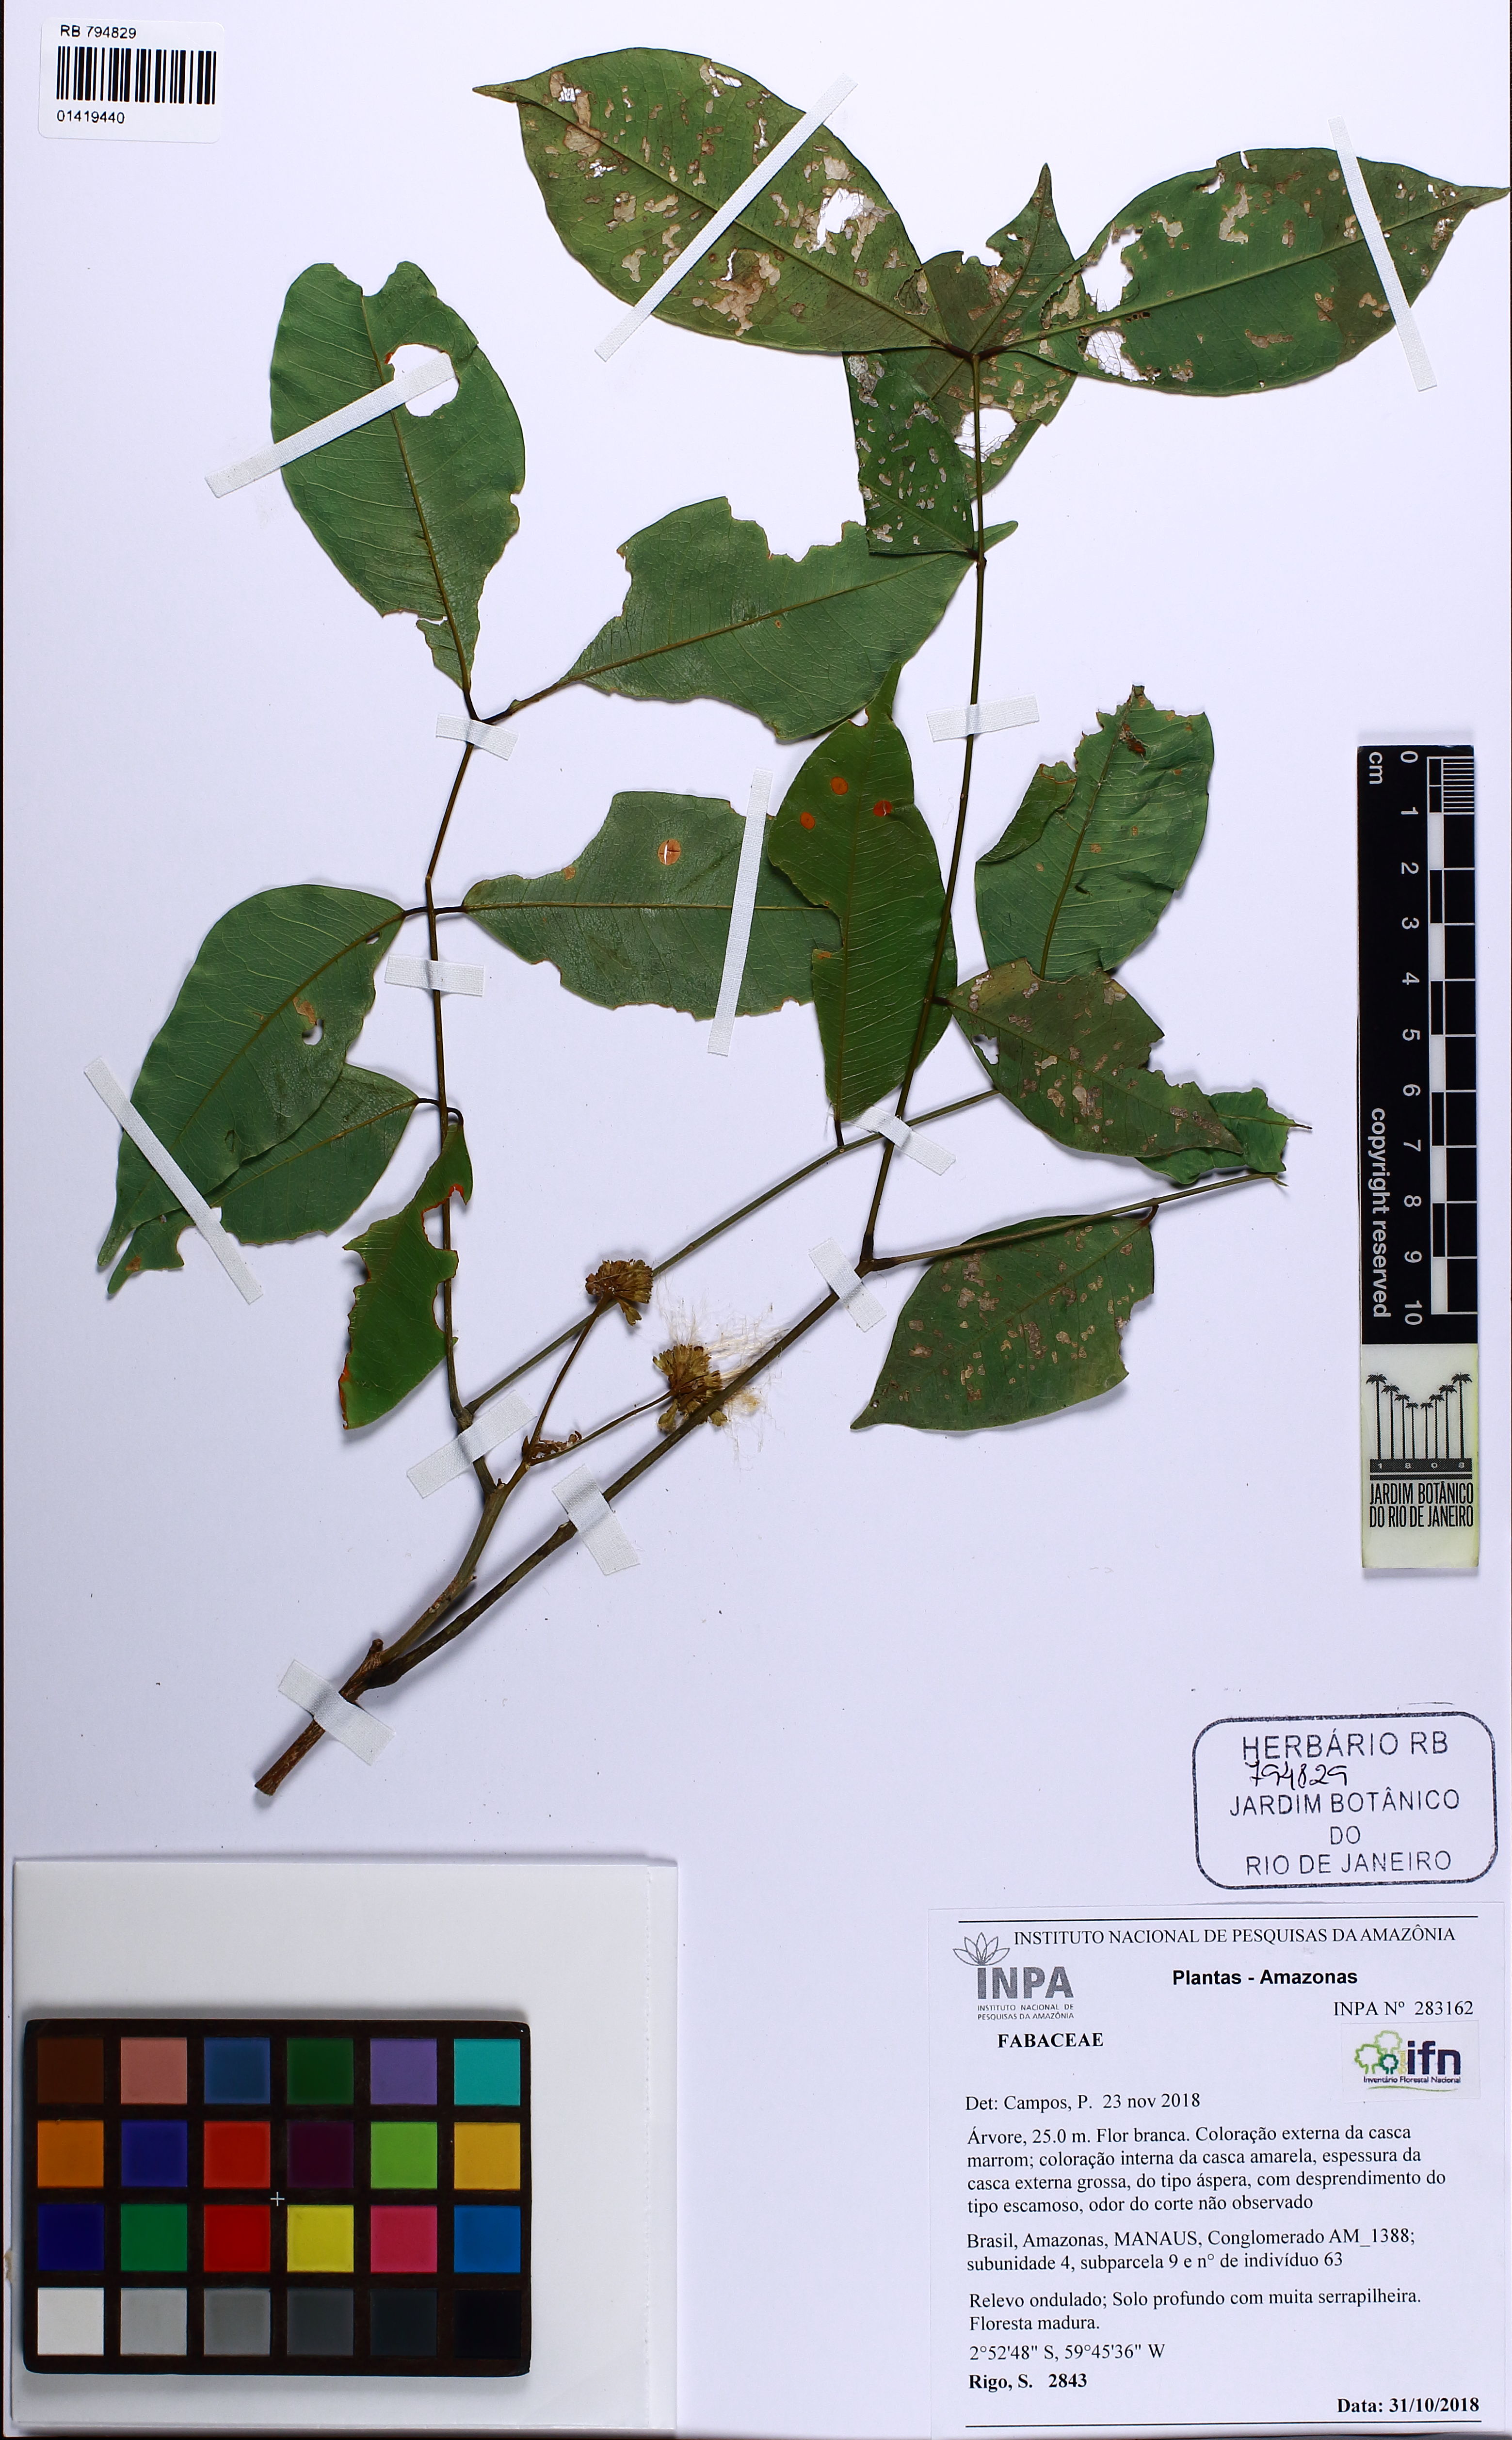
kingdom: Plantae
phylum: Tracheophyta
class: Magnoliopsida
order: Fabales
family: Fabaceae
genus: Jupunba
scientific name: Jupunba
